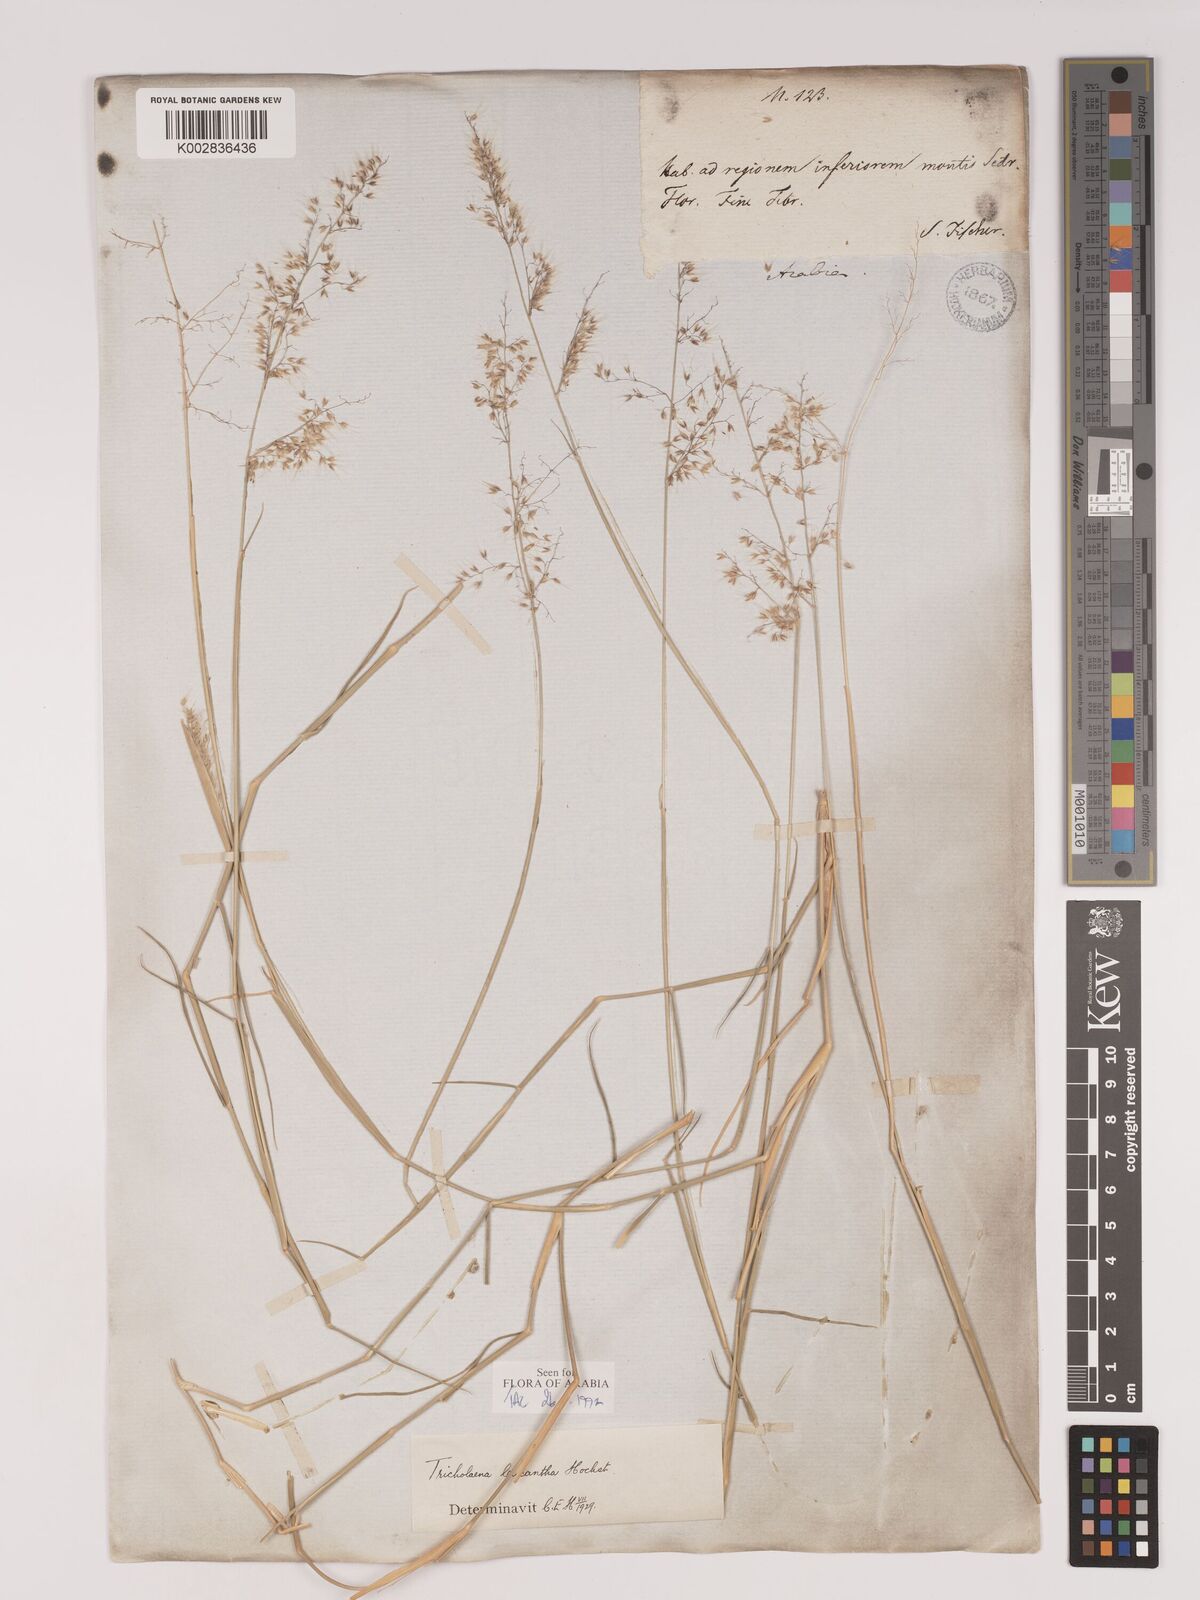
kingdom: Plantae
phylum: Tracheophyta
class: Liliopsida
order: Poales
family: Poaceae
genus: Tricholaena
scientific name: Tricholaena teneriffae
